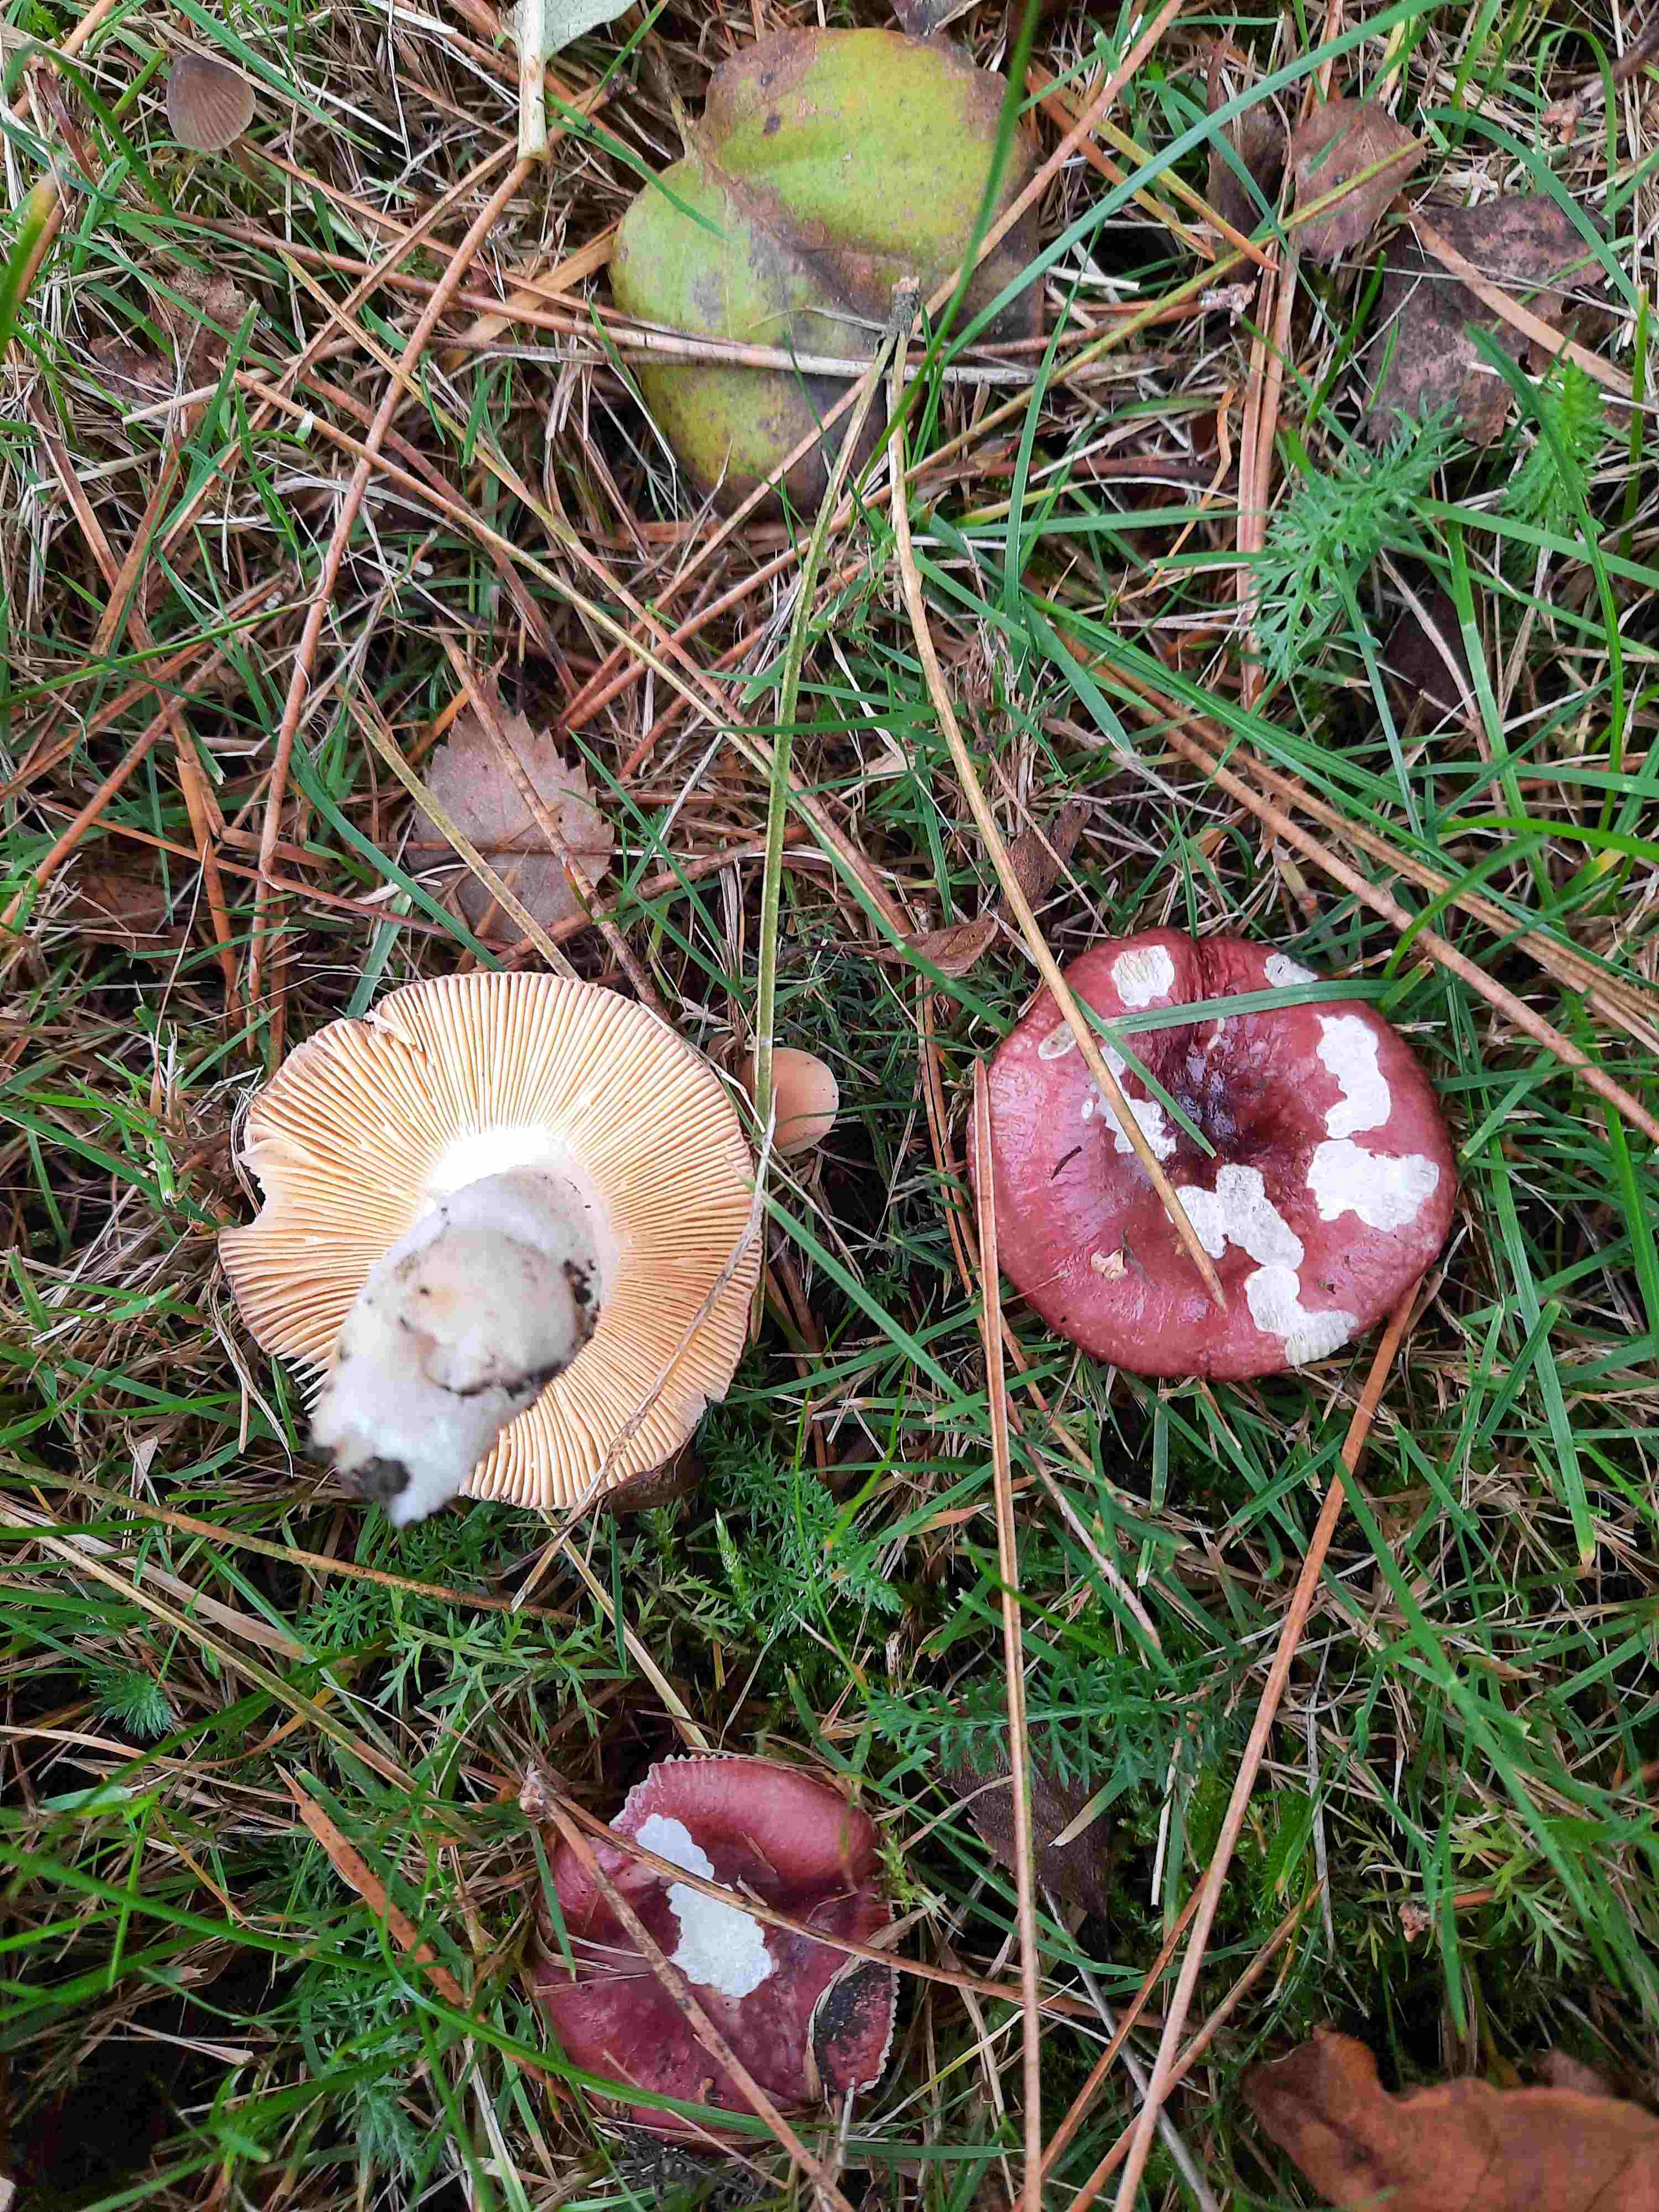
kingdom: Fungi
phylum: Basidiomycota
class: Agaricomycetes
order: Russulales
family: Russulaceae
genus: Russula
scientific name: Russula cessans
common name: fyrre-skørhat
